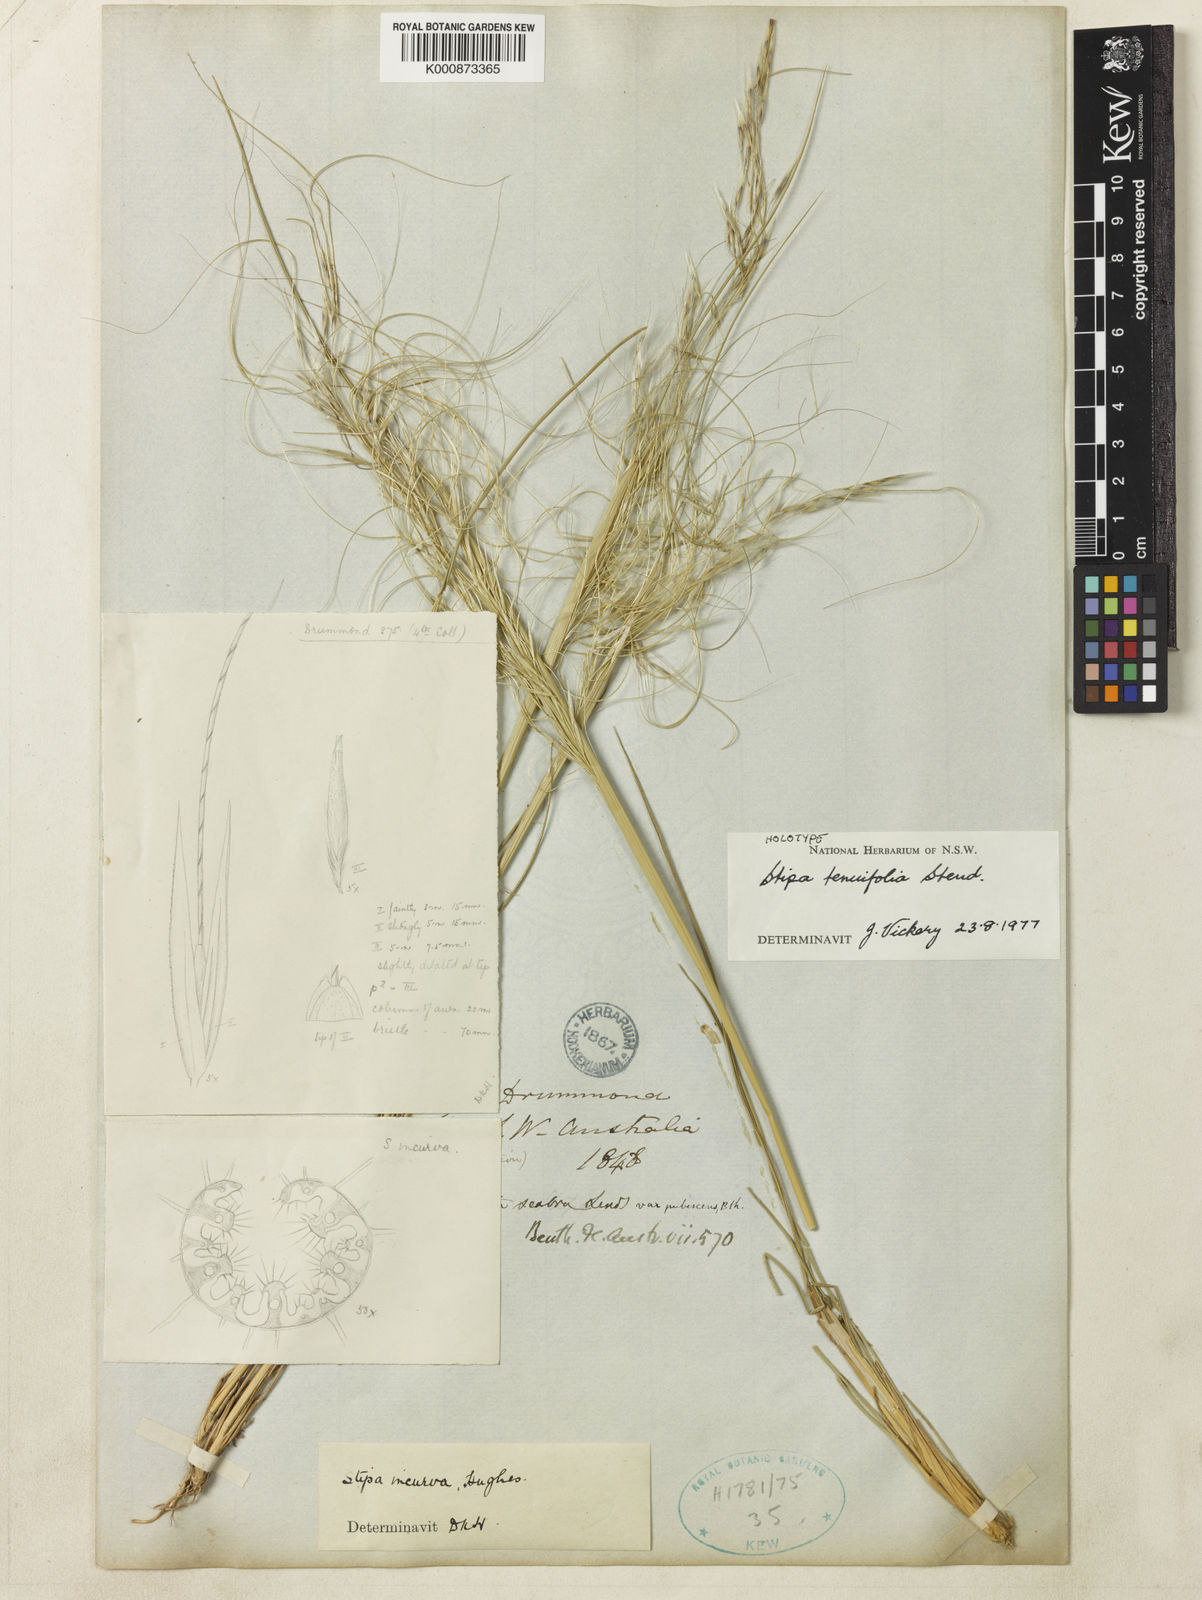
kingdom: Plantae
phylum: Tracheophyta
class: Liliopsida
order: Poales
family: Poaceae
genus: Austrostipa
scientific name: Austrostipa scabra
